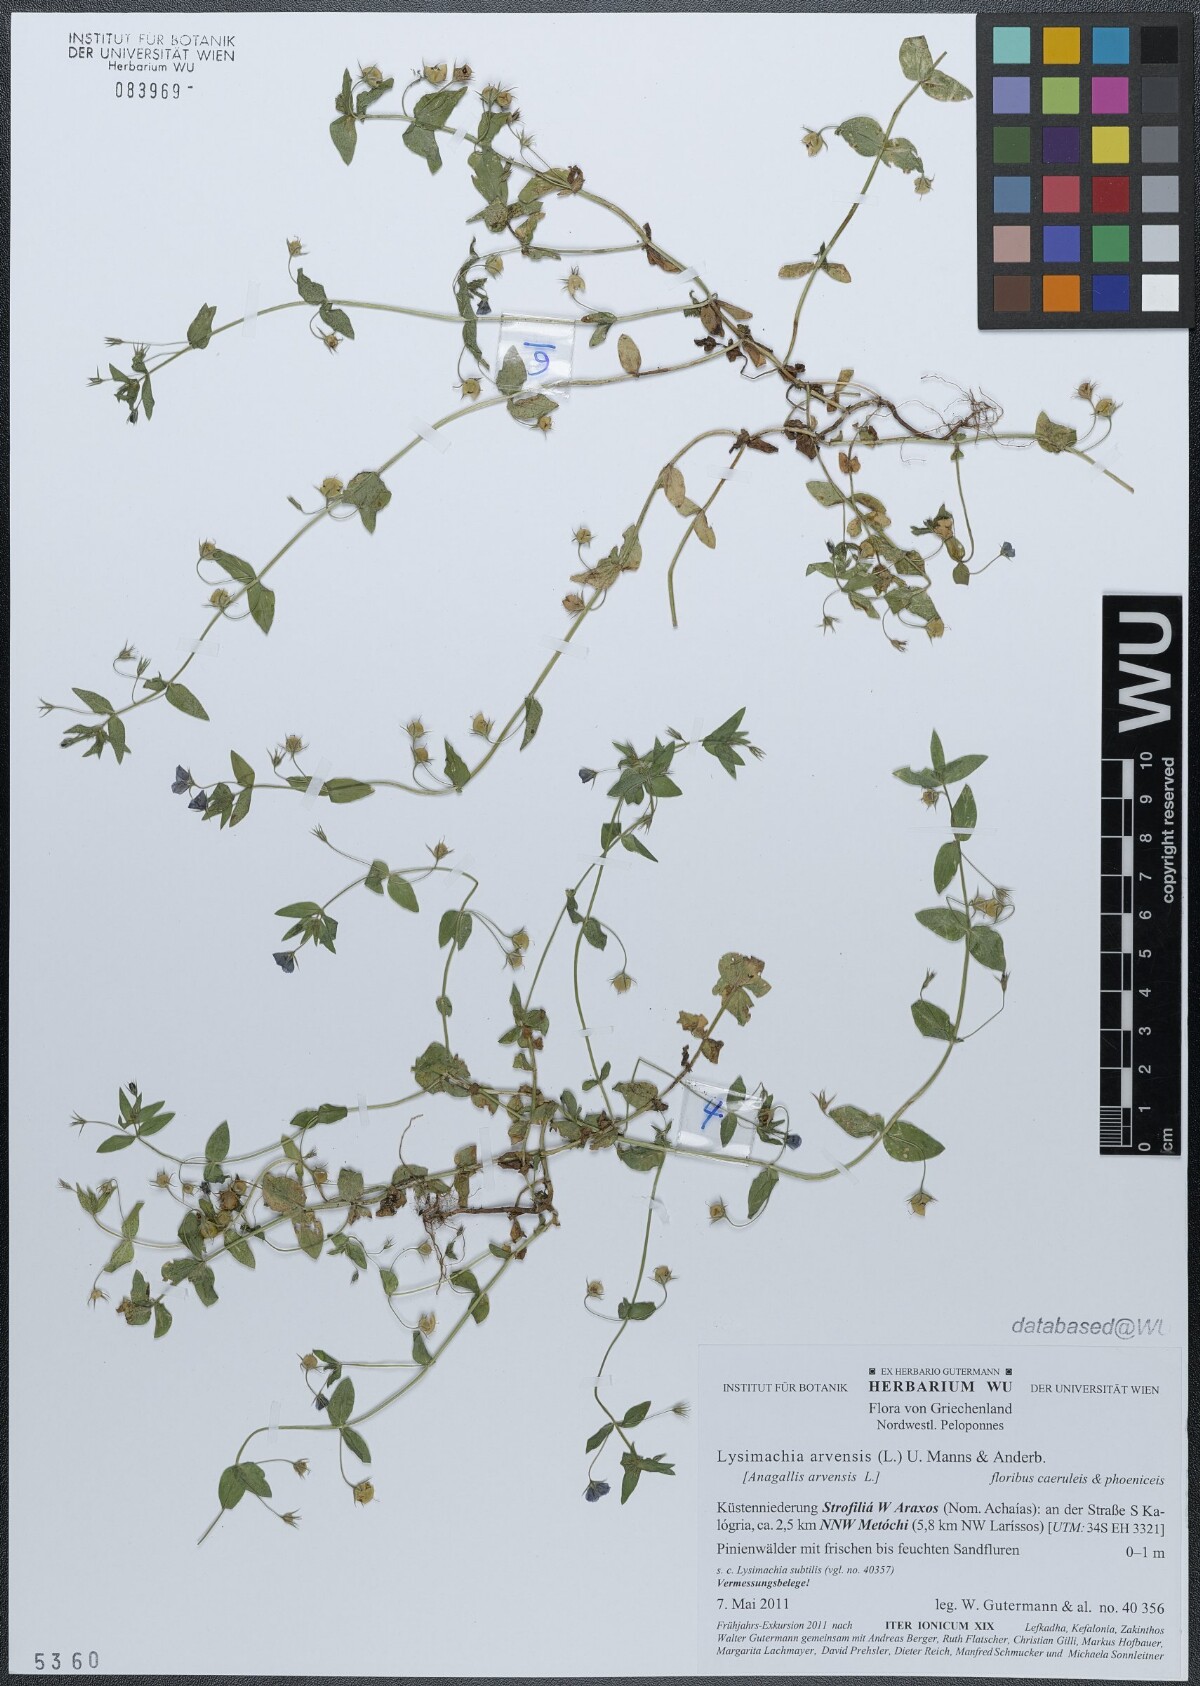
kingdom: Plantae
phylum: Tracheophyta
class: Magnoliopsida
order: Ericales
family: Primulaceae
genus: Lysimachia
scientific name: Lysimachia arvensis
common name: Scarlet pimpernel
